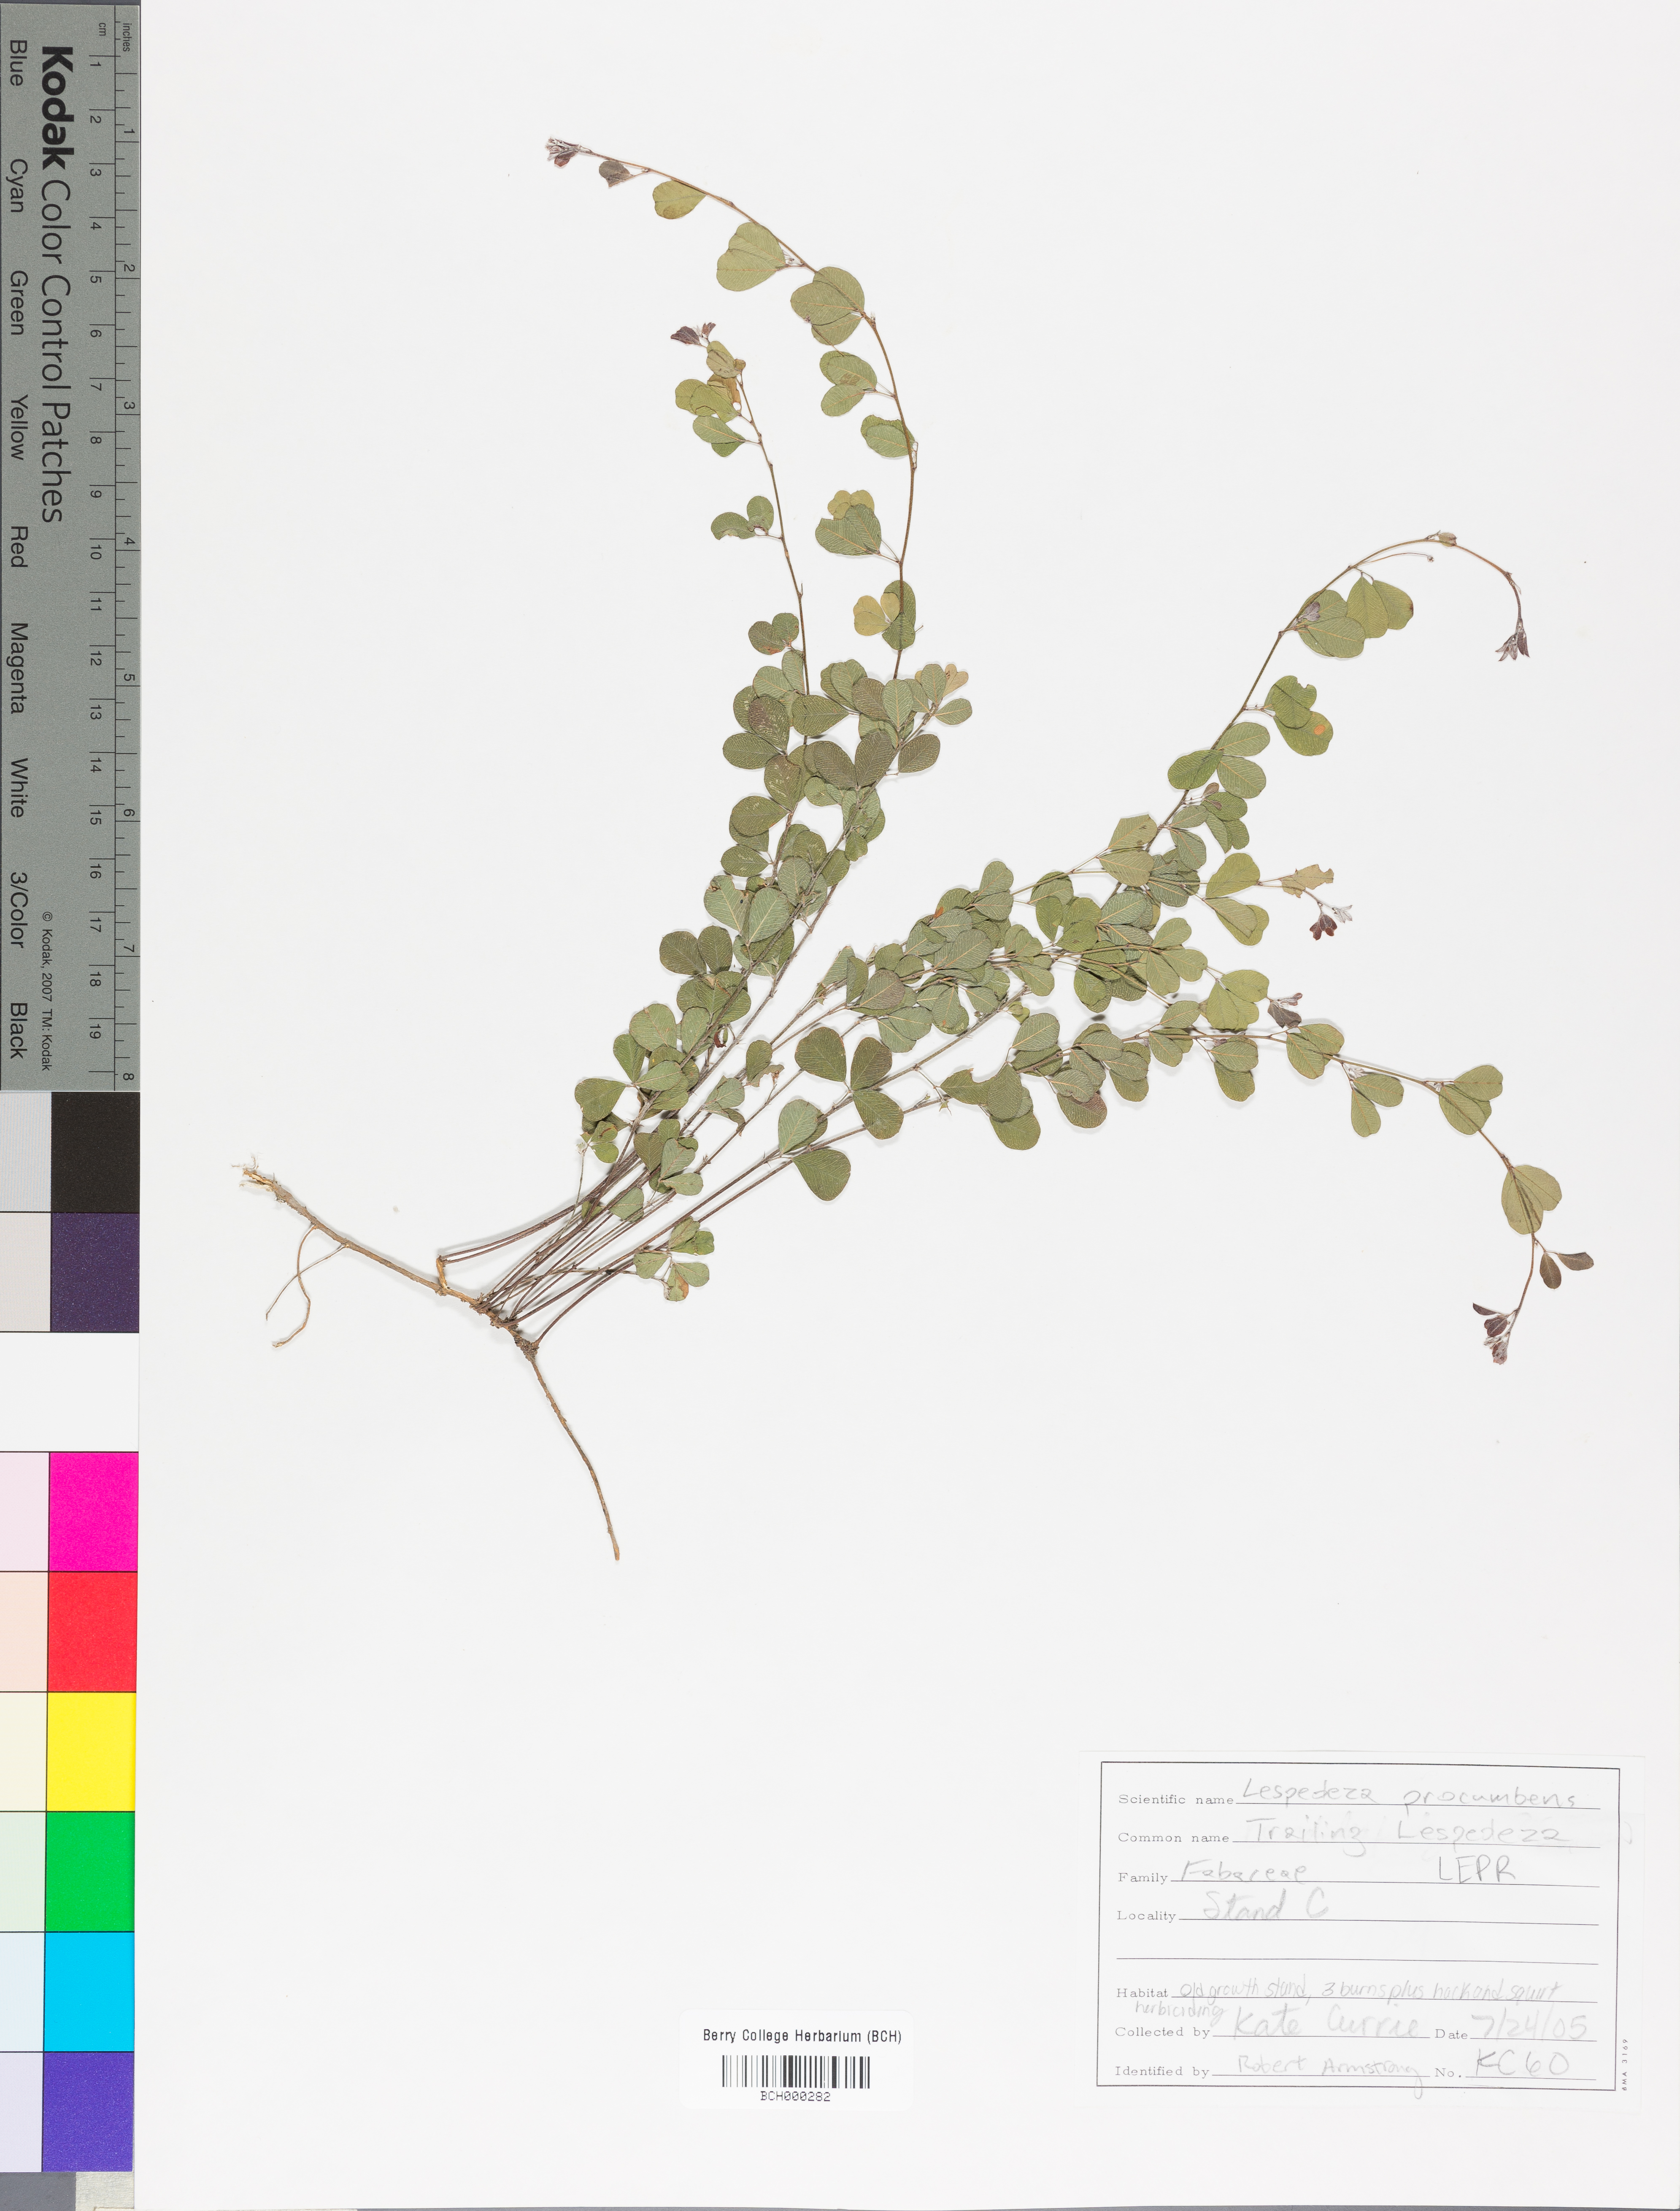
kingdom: Plantae
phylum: Tracheophyta
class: Magnoliopsida
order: Fabales
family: Fabaceae
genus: Lespedeza
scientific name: Lespedeza procumbens
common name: Downy trailing bush-clover
